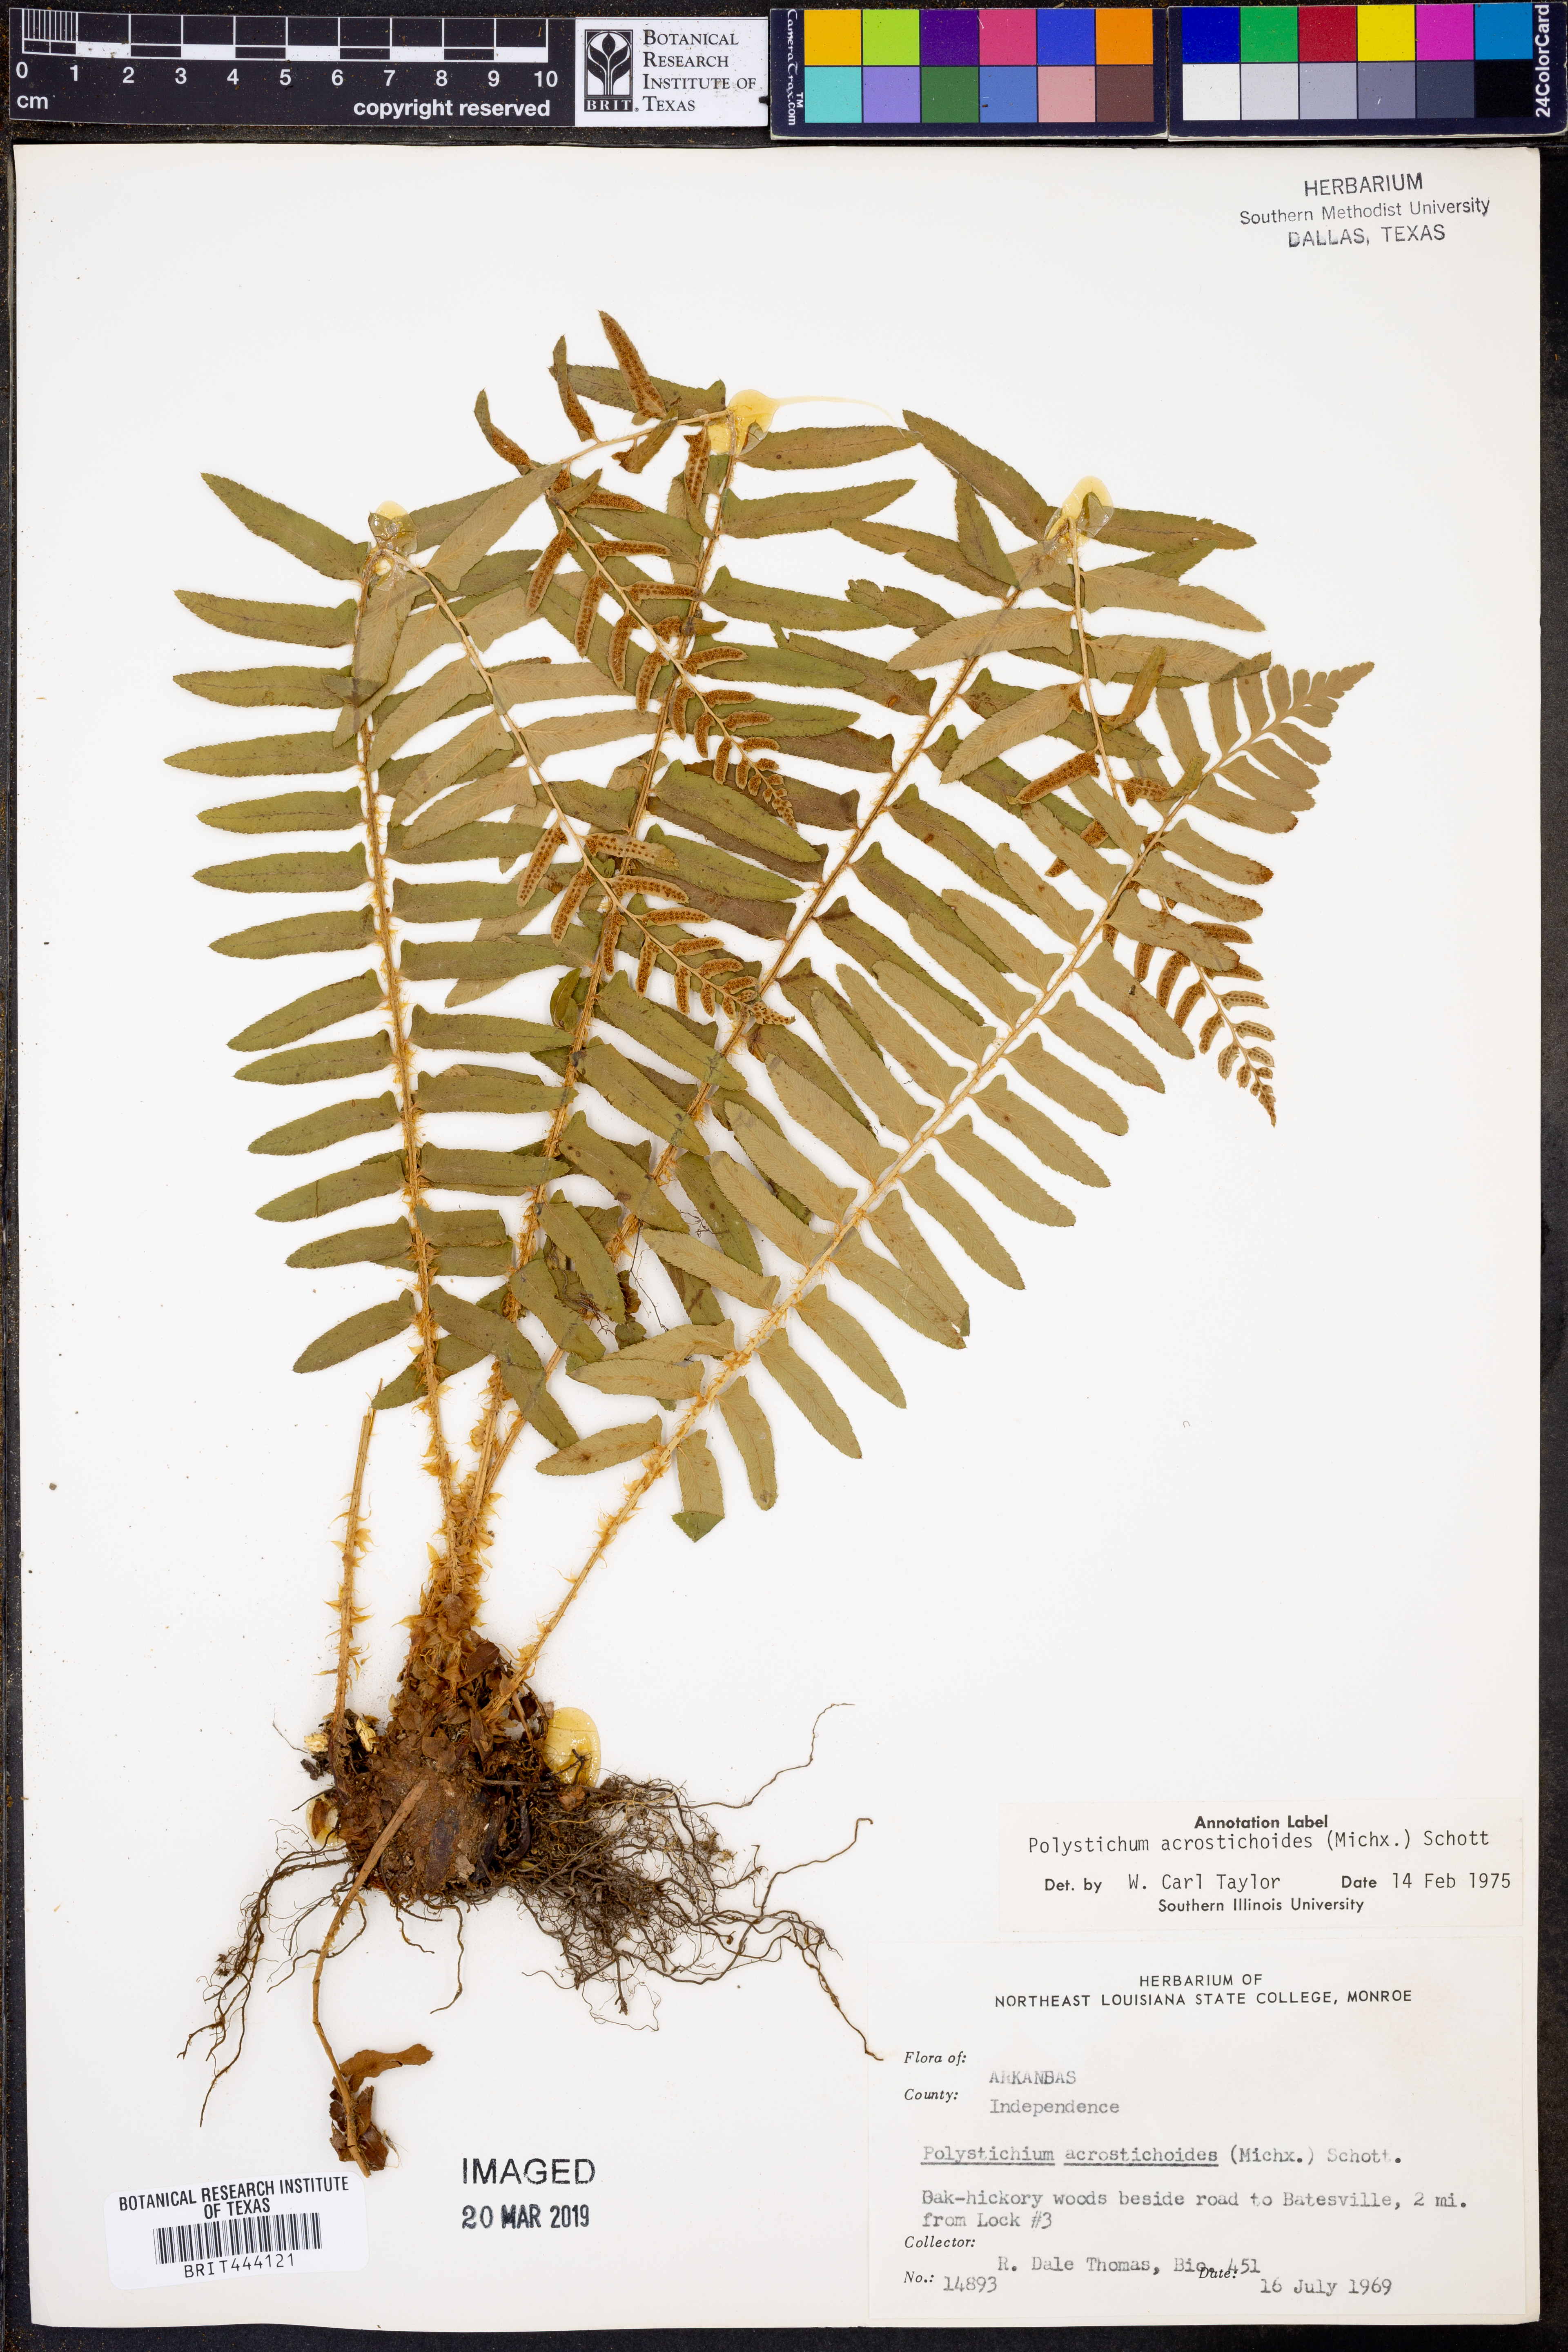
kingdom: Plantae
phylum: Tracheophyta
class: Polypodiopsida
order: Polypodiales
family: Dryopteridaceae
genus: Polystichum
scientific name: Polystichum acrostichoides
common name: Christmas fern
